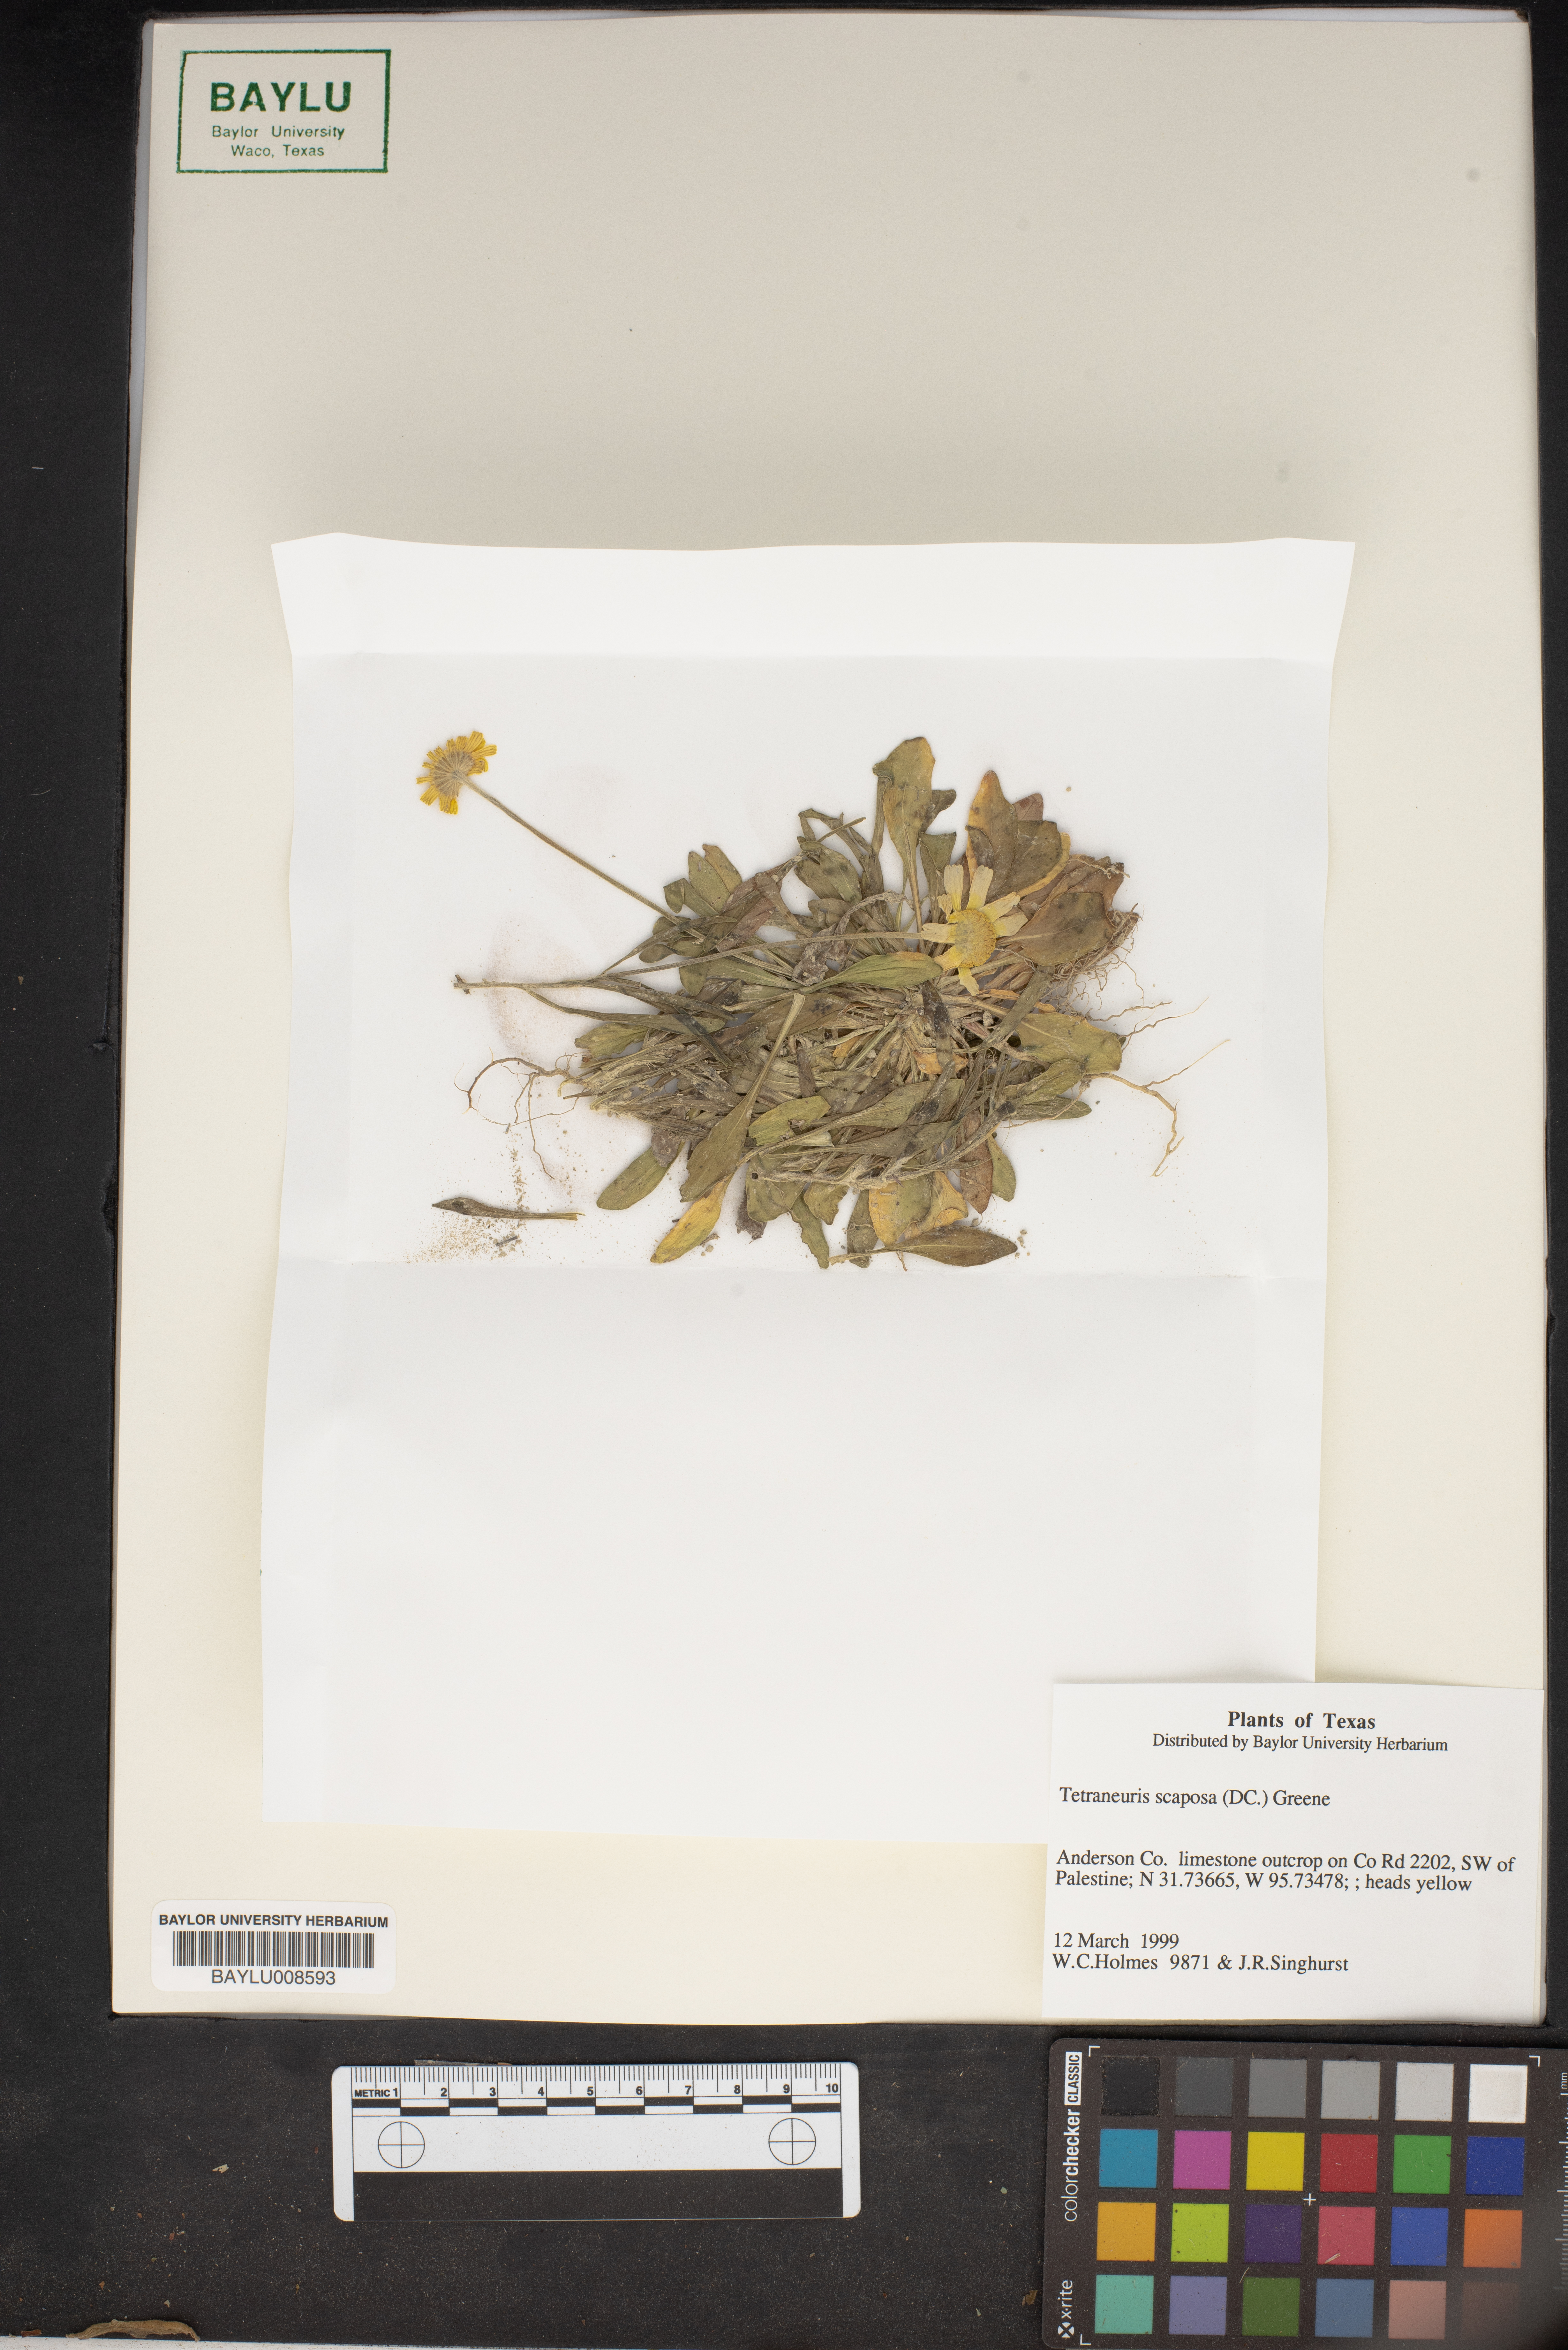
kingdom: Plantae
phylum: Tracheophyta
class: Magnoliopsida
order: Asterales
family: Asteraceae
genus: Tetraneuris
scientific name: Tetraneuris scaposa
